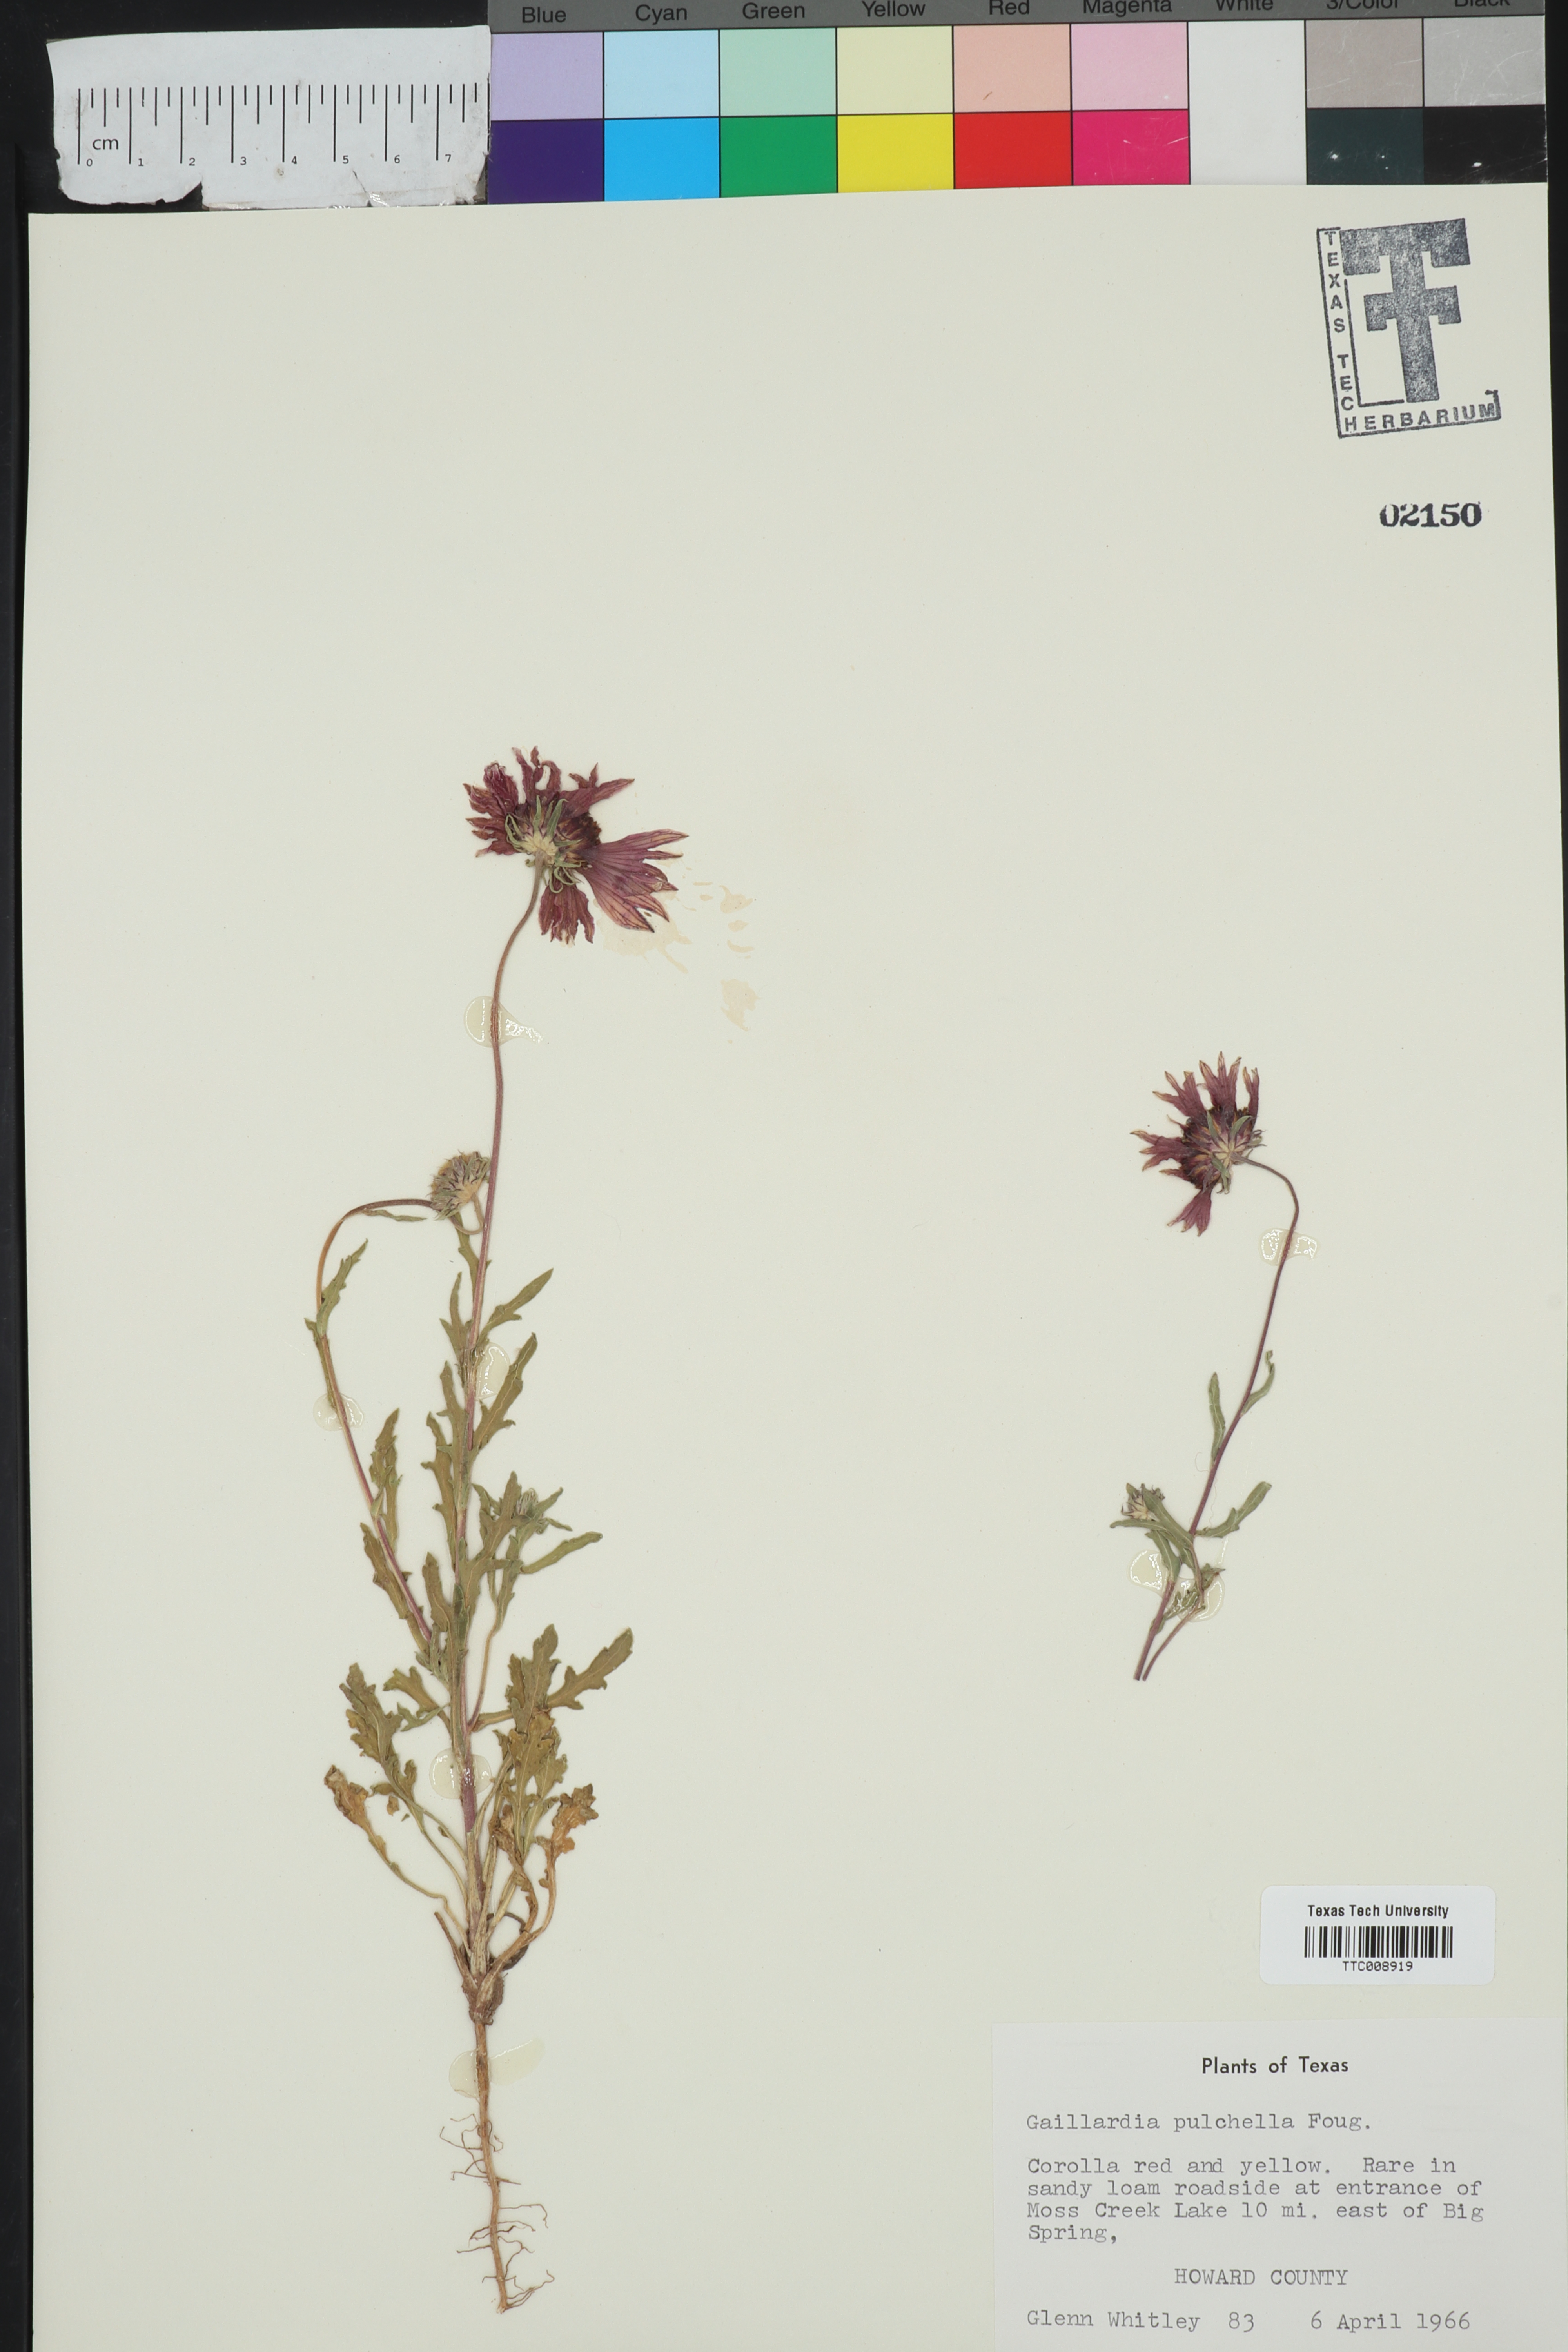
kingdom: Plantae
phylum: Tracheophyta
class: Magnoliopsida
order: Asterales
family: Asteraceae
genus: Gaillardia
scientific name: Gaillardia pulchella
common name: Firewheel
